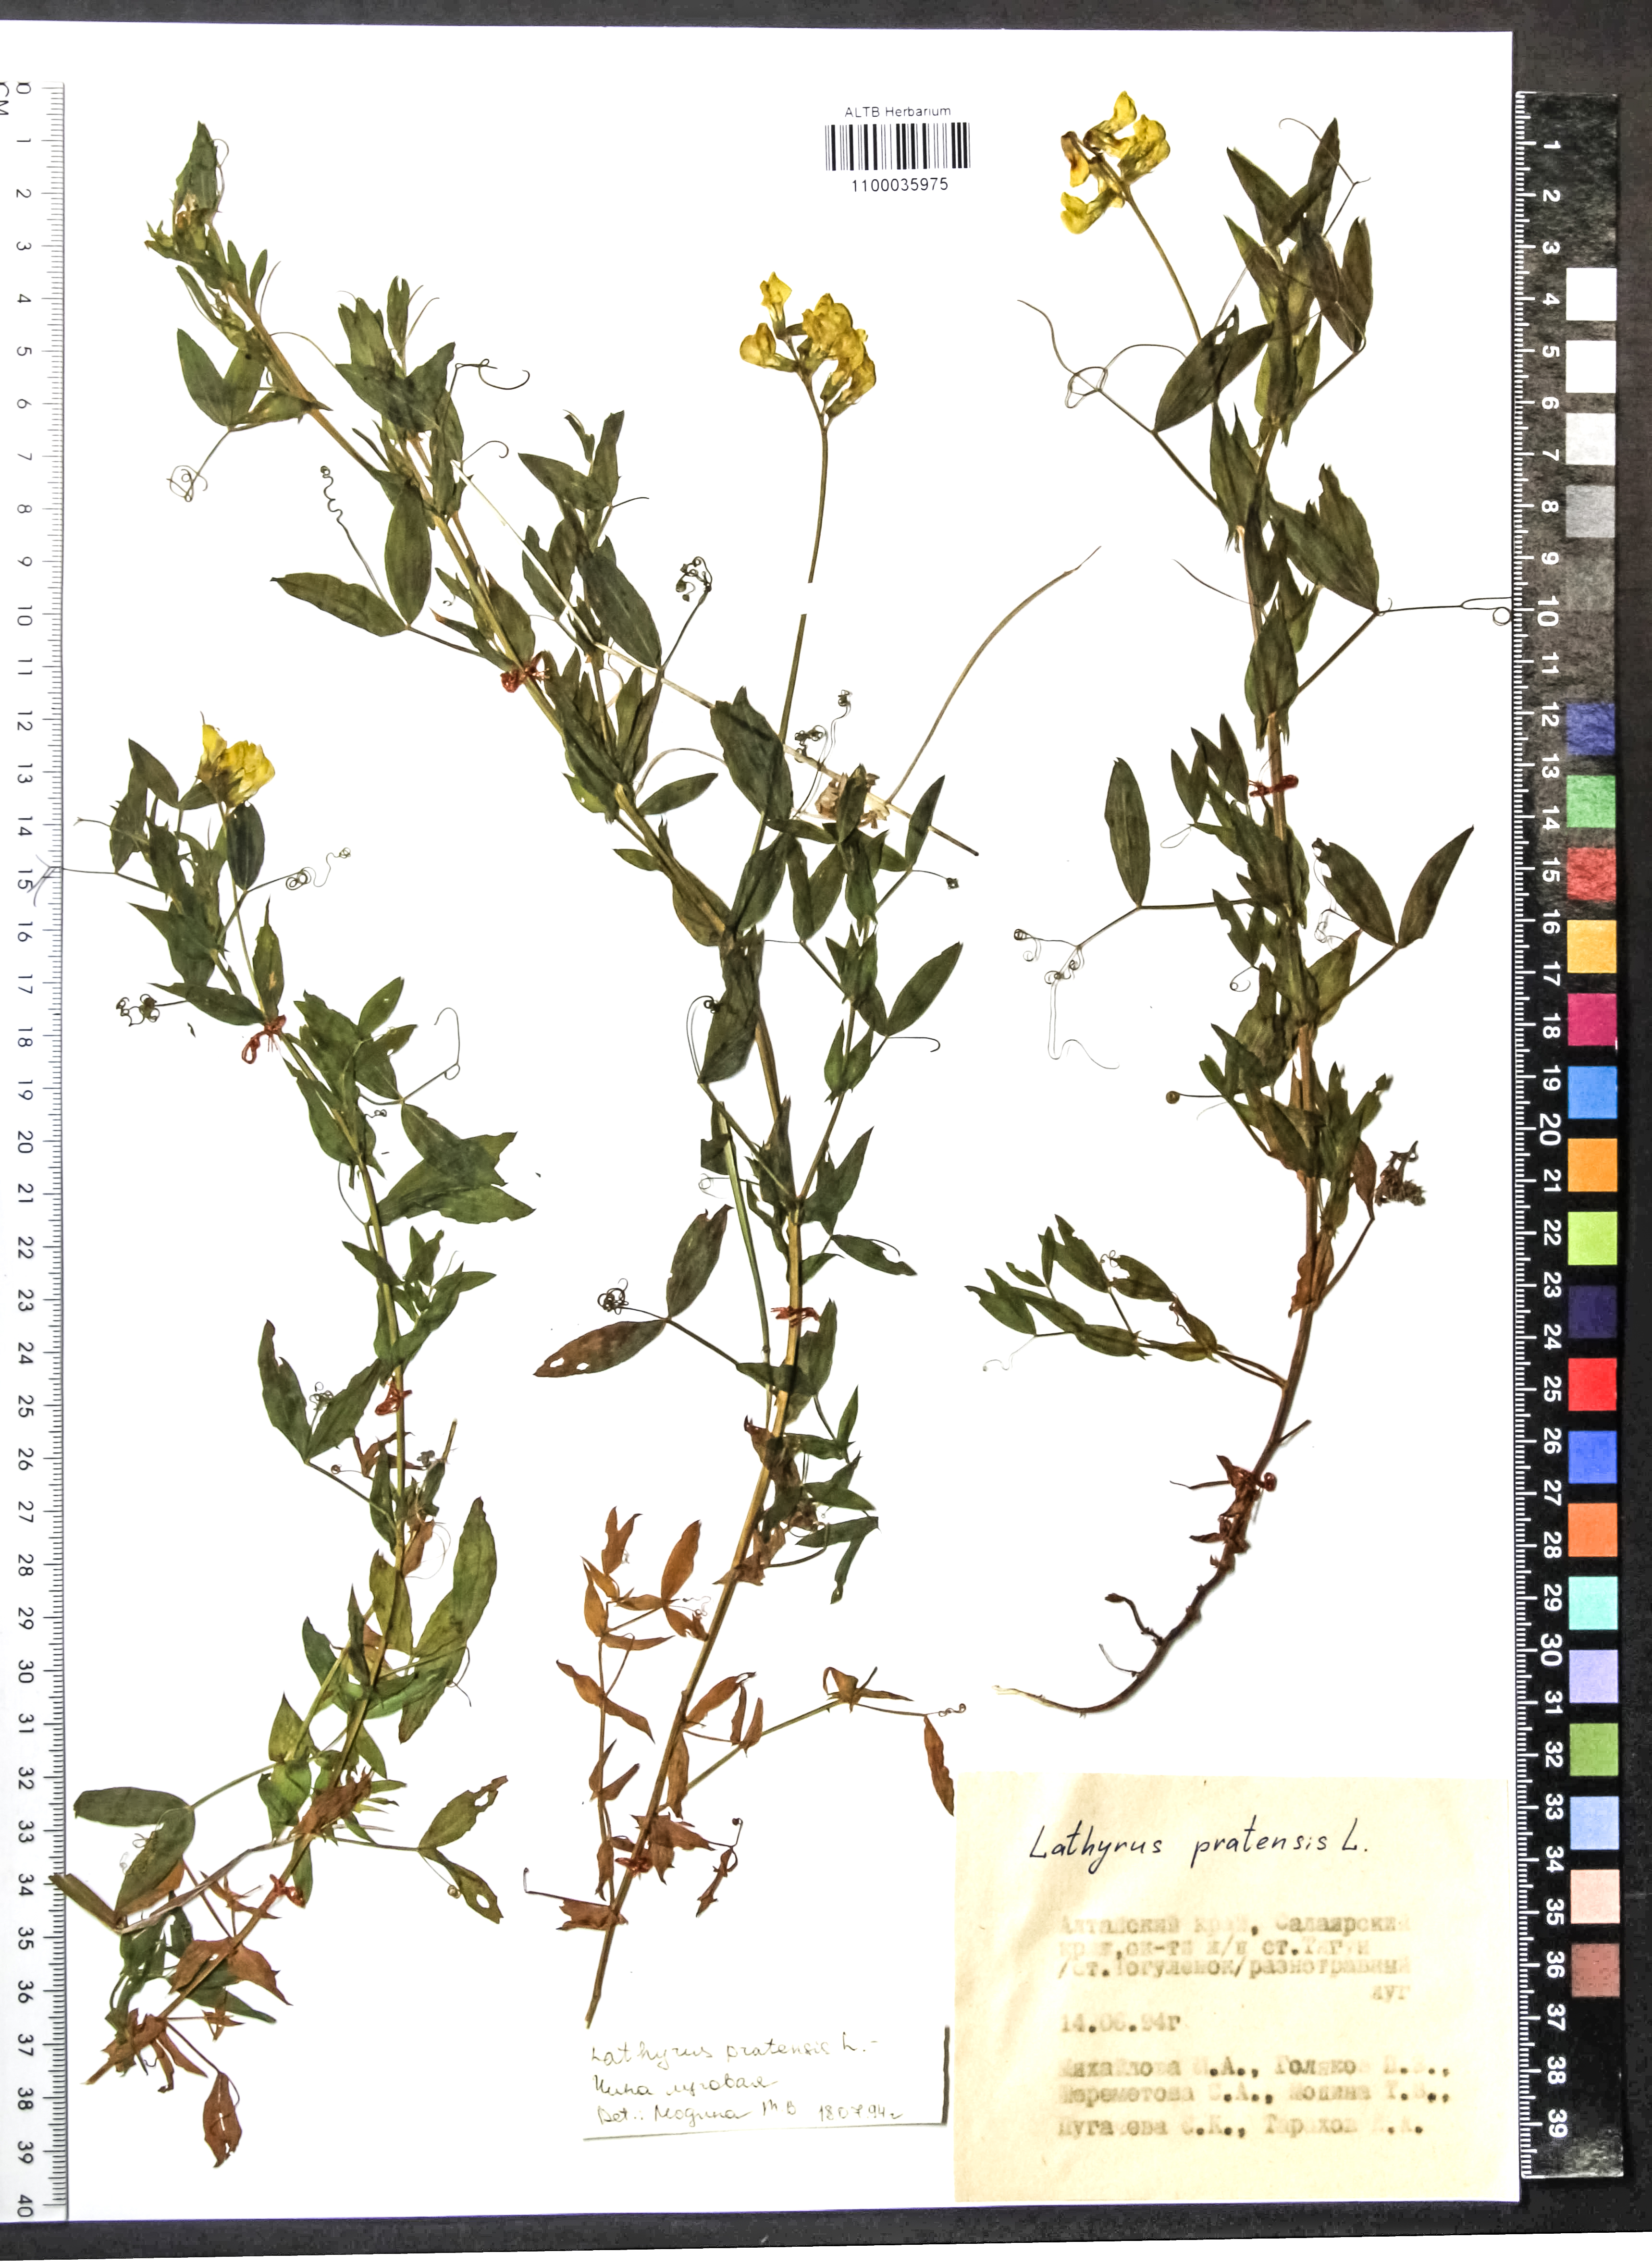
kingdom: Plantae
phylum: Tracheophyta
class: Magnoliopsida
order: Fabales
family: Fabaceae
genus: Lathyrus
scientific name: Lathyrus pratensis
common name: Meadow vetchling
